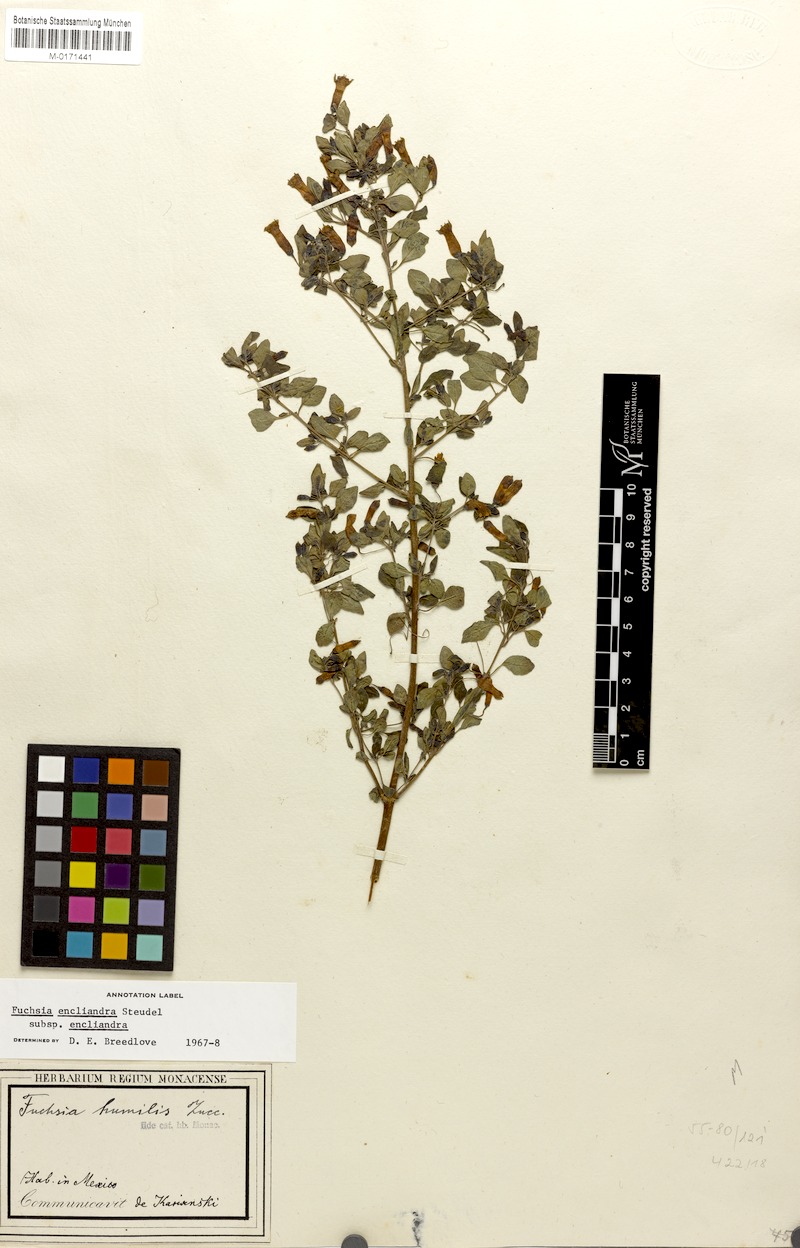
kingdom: Plantae
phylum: Tracheophyta
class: Magnoliopsida
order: Myrtales
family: Onagraceae
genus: Fuchsia
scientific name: Fuchsia encliandra
